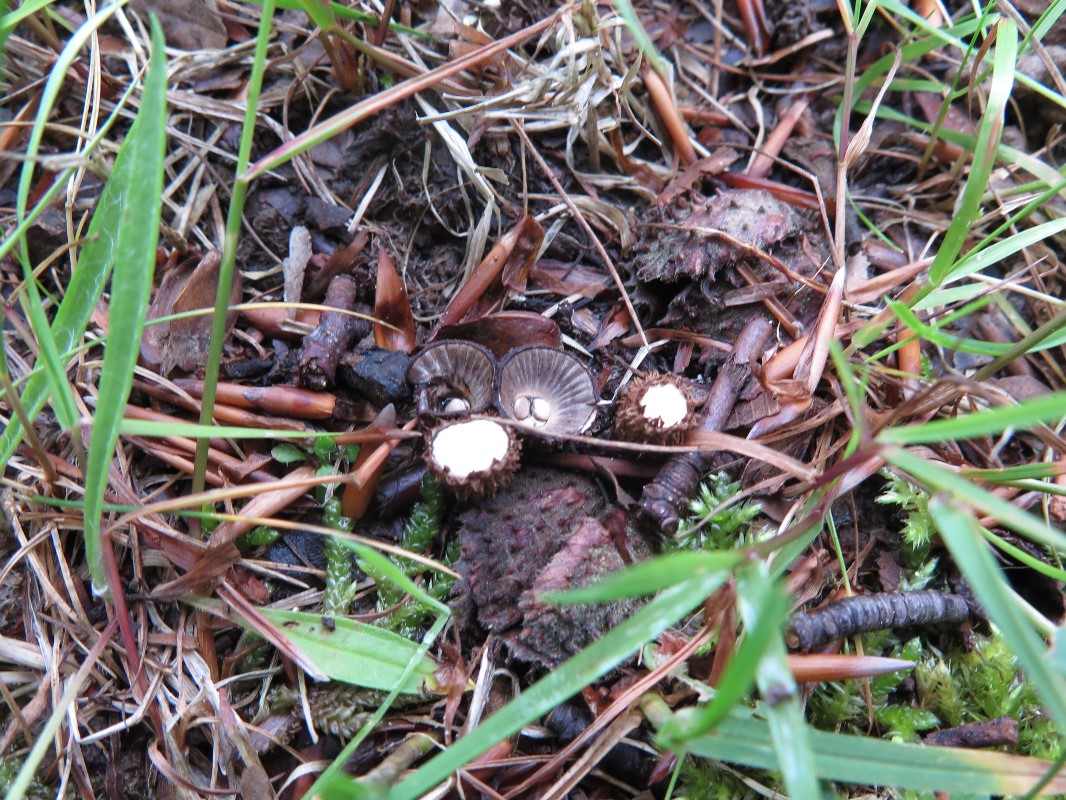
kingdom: Fungi
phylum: Basidiomycota
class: Agaricomycetes
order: Agaricales
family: Agaricaceae
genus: Cyathus
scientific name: Cyathus striatus
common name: stribet redesvamp
